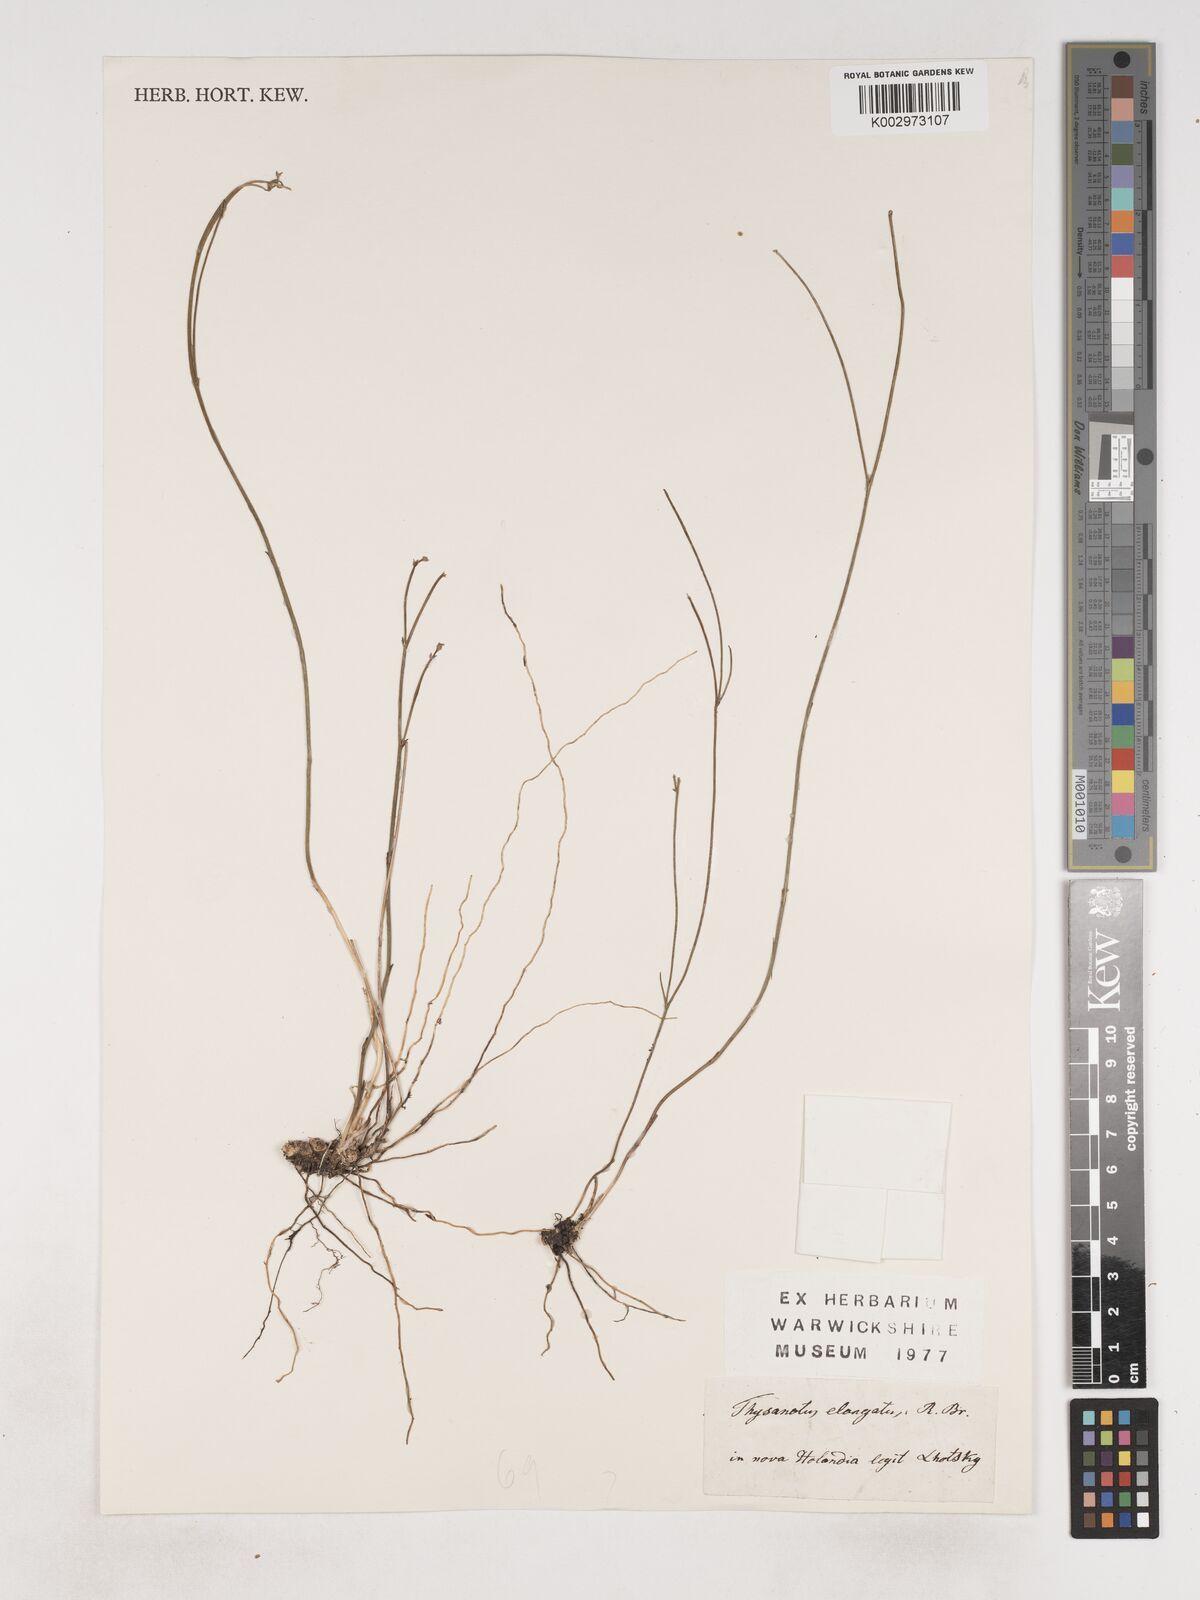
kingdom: Plantae
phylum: Tracheophyta
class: Liliopsida
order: Asparagales
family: Asparagaceae
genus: Thysanotus
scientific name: Thysanotus dichotomus
